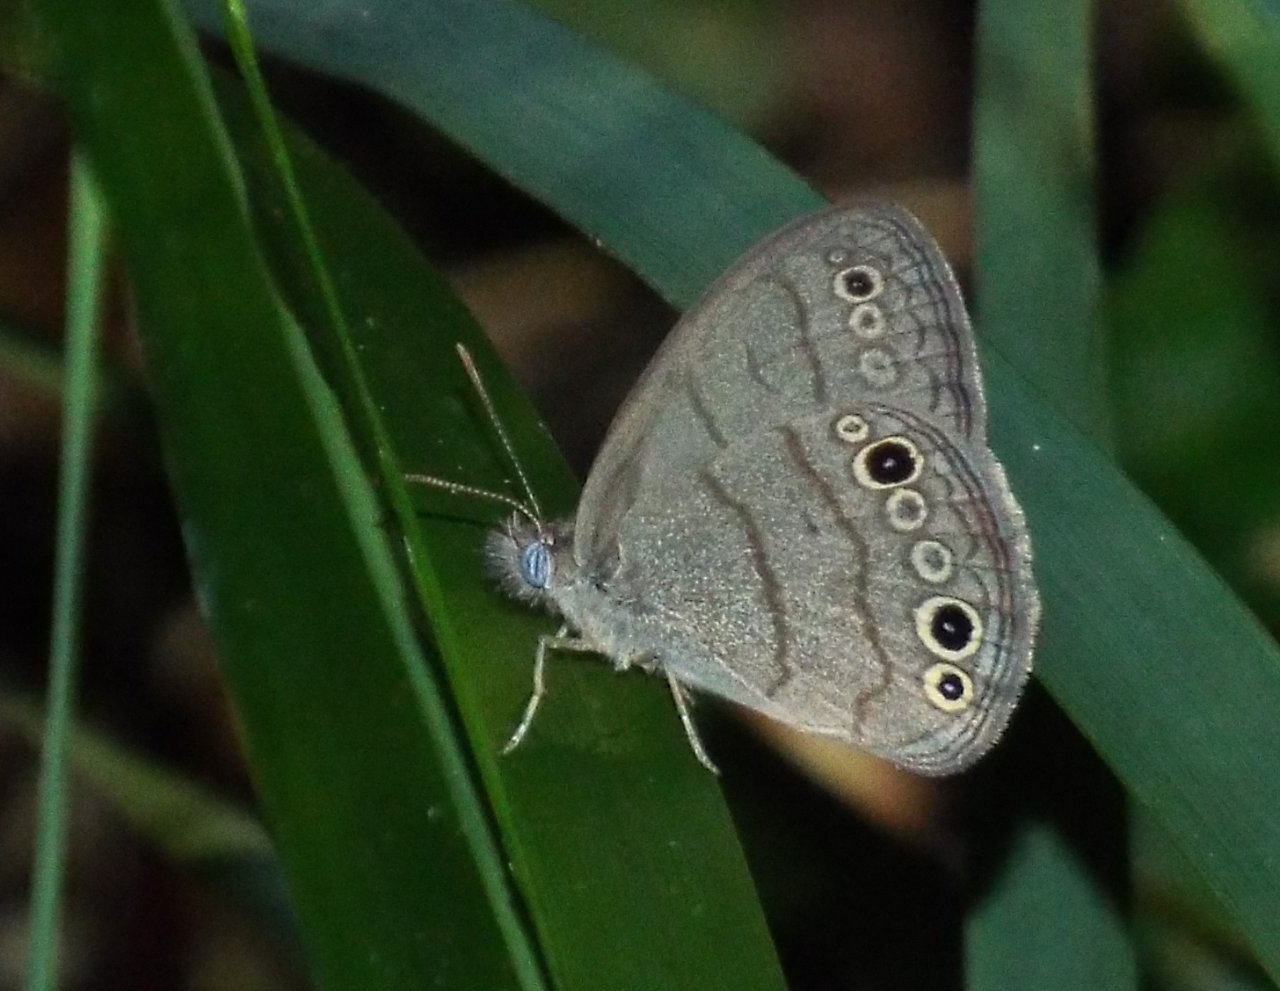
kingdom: Animalia
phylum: Arthropoda
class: Insecta
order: Lepidoptera
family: Nymphalidae
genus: Hermeuptychia
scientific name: Hermeuptychia intricata
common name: Intricate Satyr
